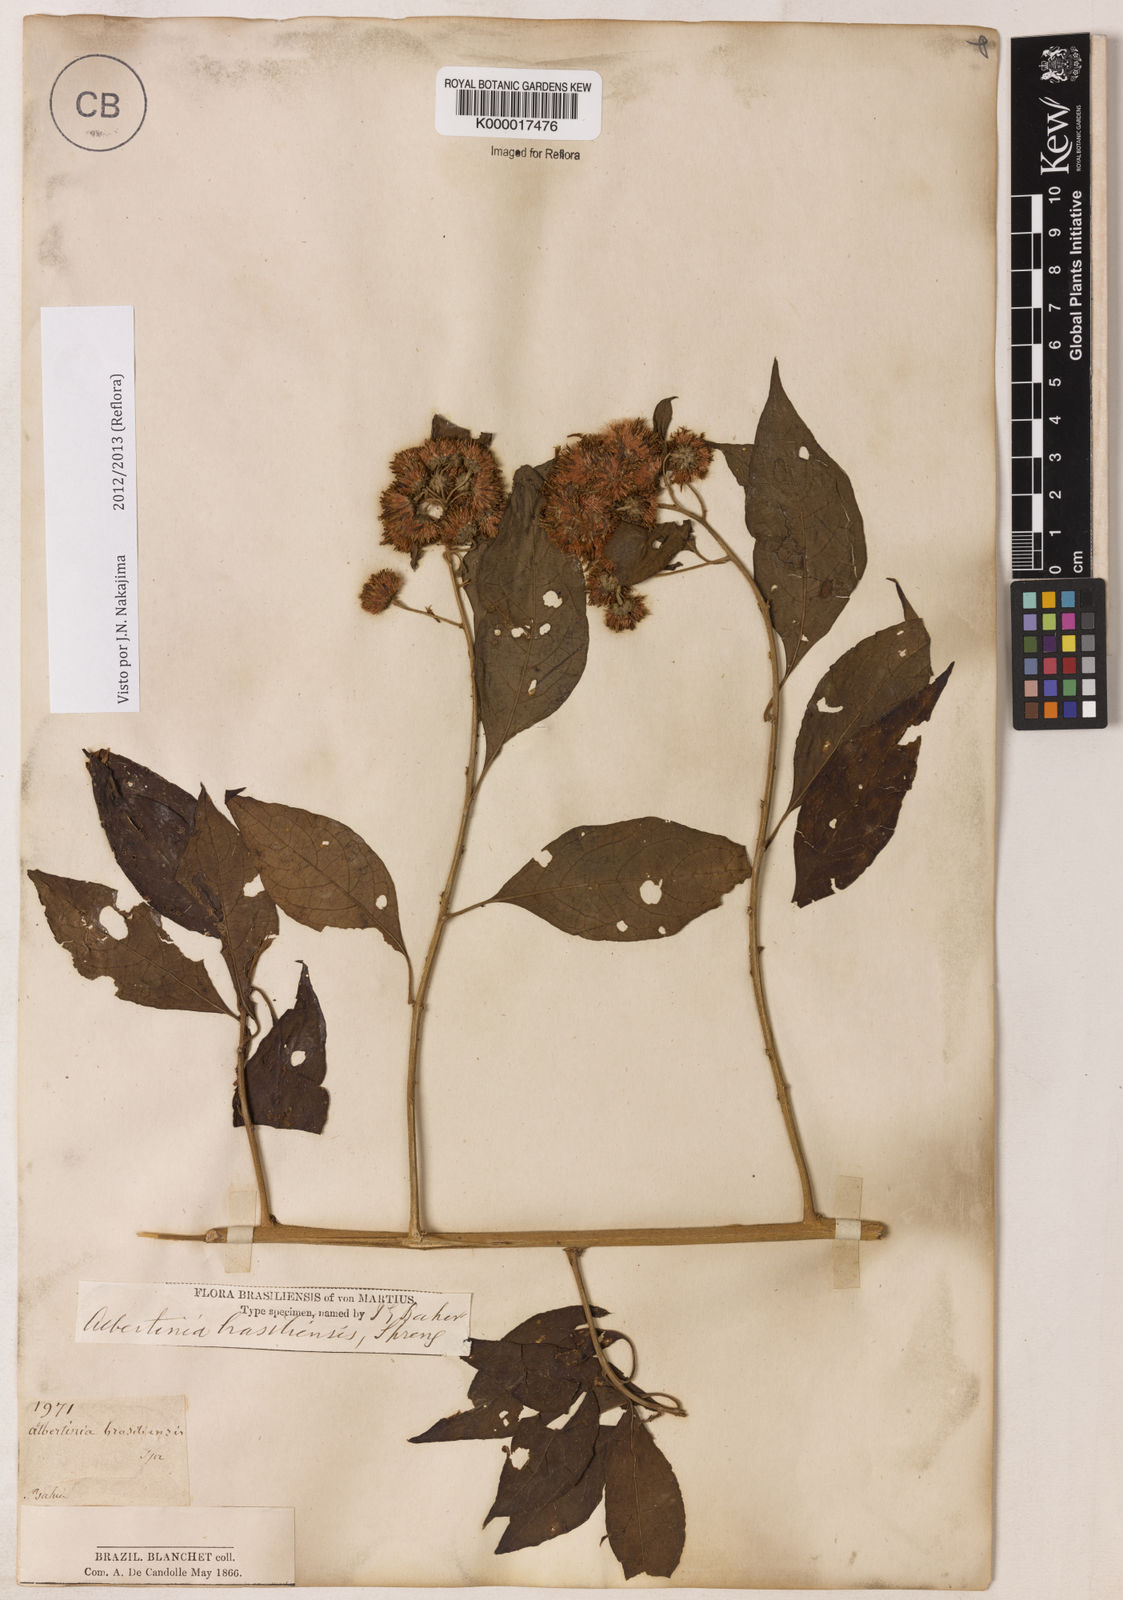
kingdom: Plantae
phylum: Tracheophyta
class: Magnoliopsida
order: Asterales
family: Asteraceae
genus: Albertinia
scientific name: Albertinia brasiliensis
